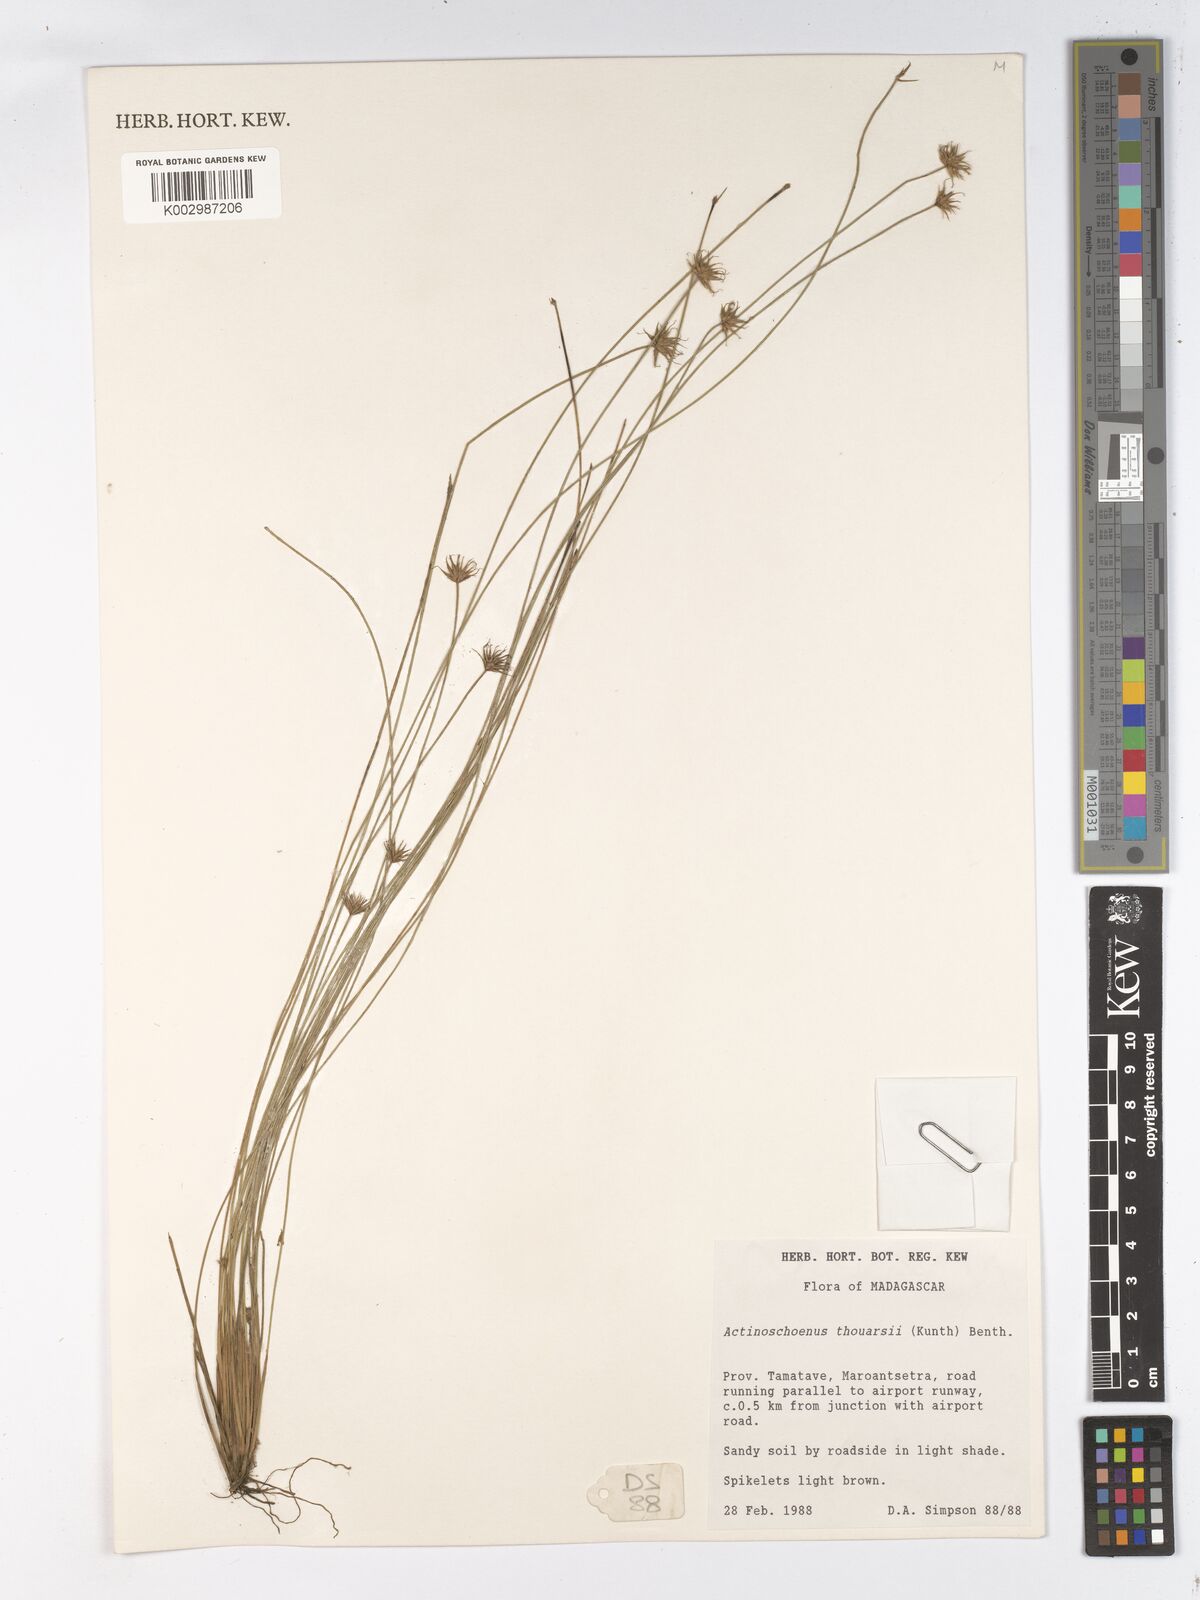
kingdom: Plantae
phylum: Tracheophyta
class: Liliopsida
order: Poales
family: Cyperaceae
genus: Actinoschoenus
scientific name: Actinoschoenus aphyllus
